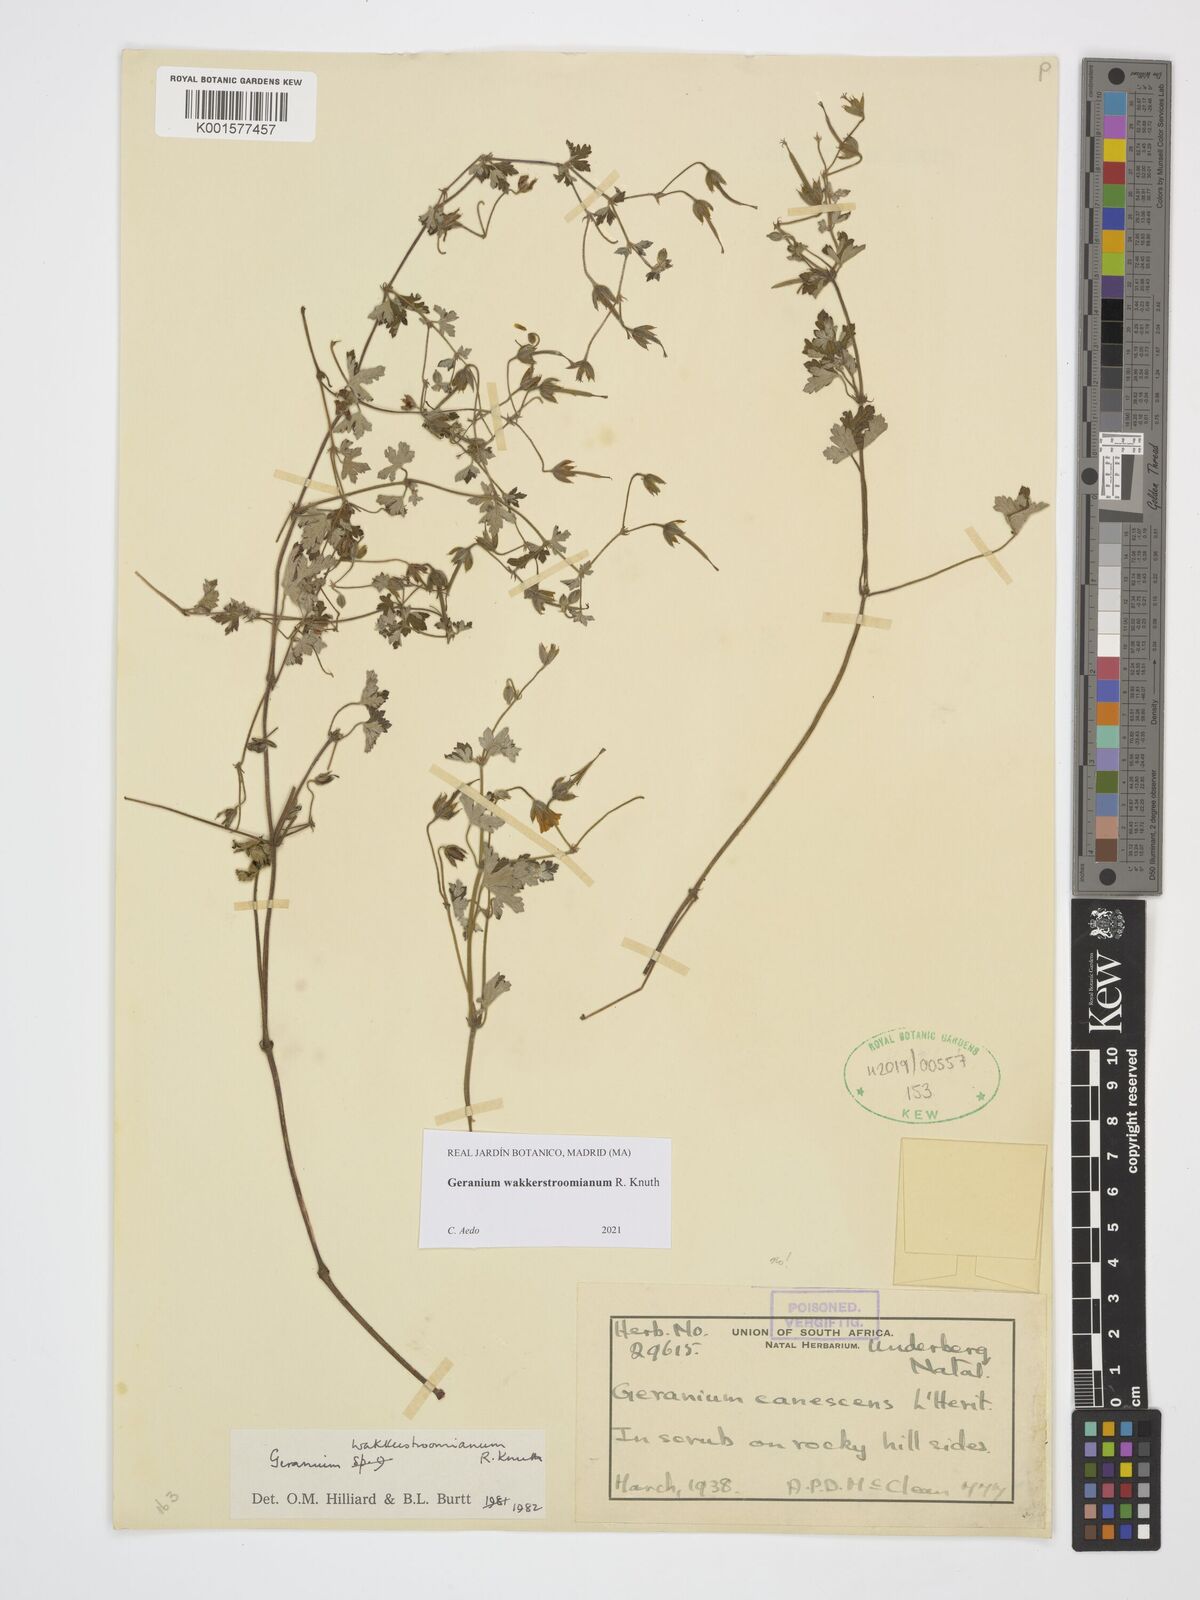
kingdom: Plantae
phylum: Tracheophyta
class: Magnoliopsida
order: Geraniales
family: Geraniaceae
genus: Geranium
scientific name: Geranium wakkerstroomianum
